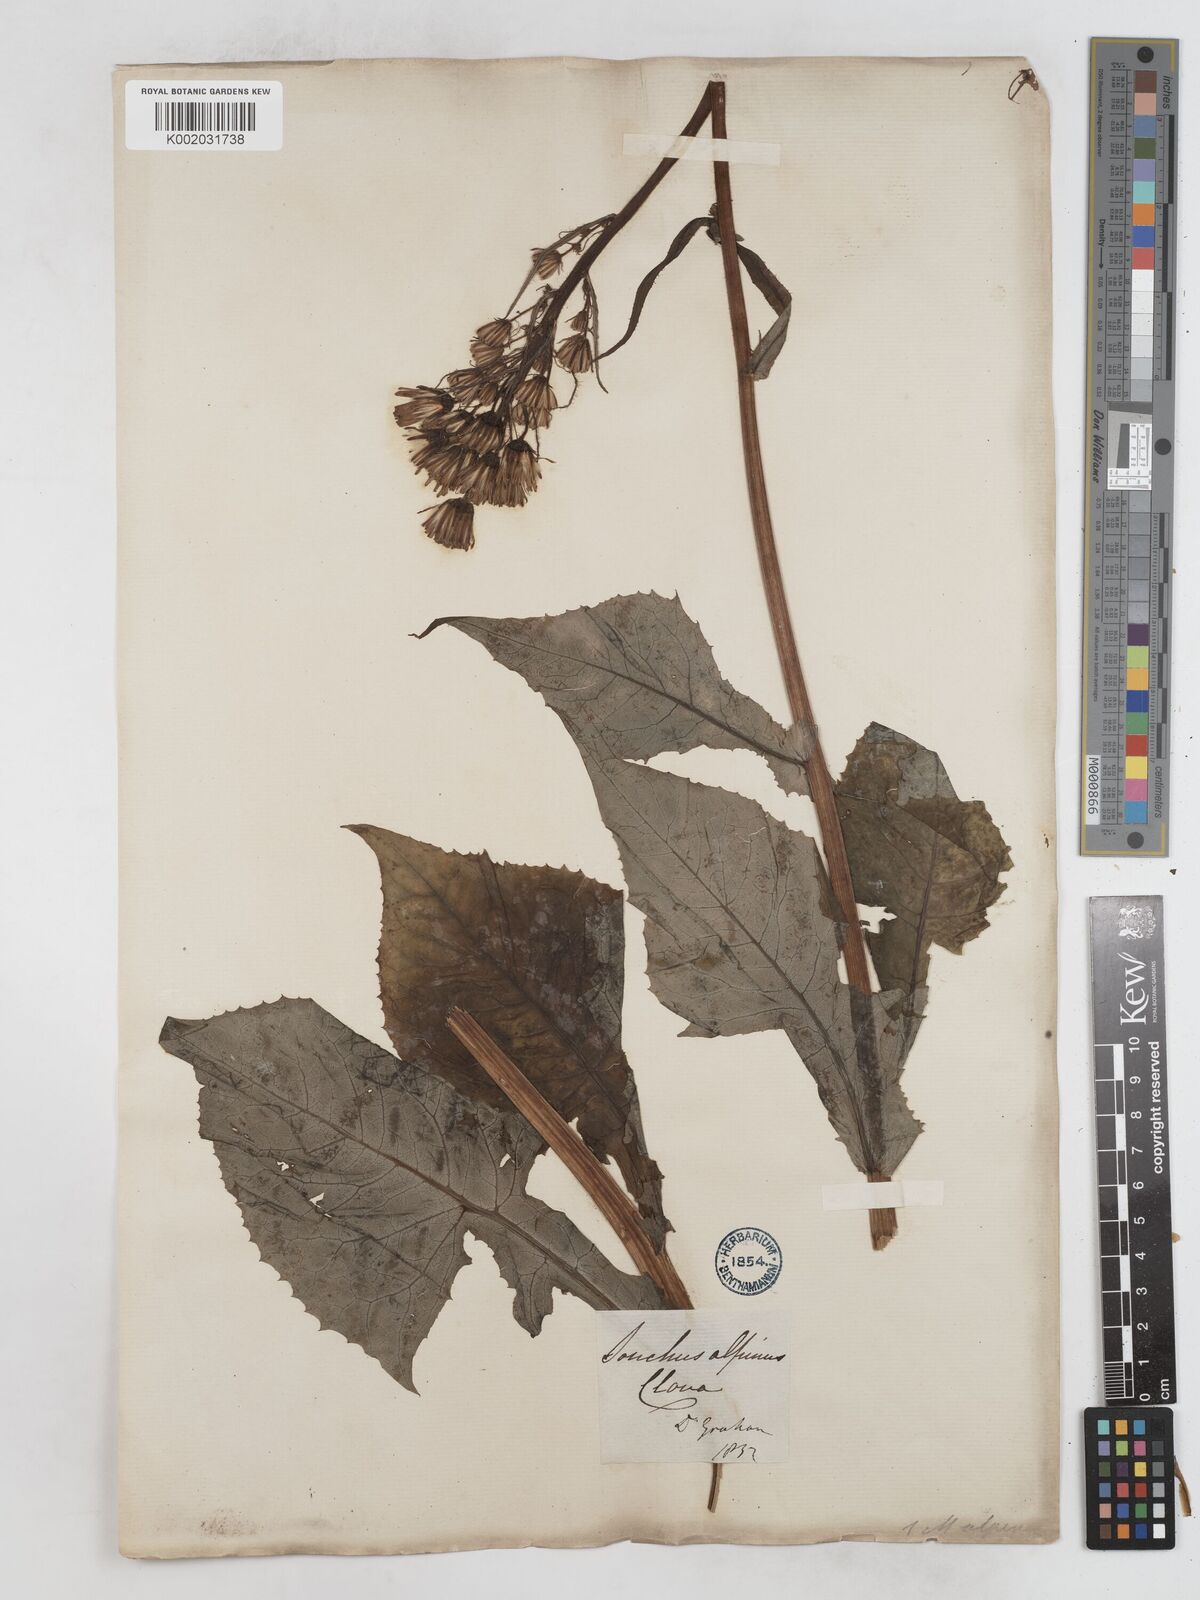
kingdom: Plantae
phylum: Tracheophyta
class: Magnoliopsida
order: Asterales
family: Asteraceae
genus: Cicerbita
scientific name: Cicerbita alpina
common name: Alpine blue-sow-thistle
